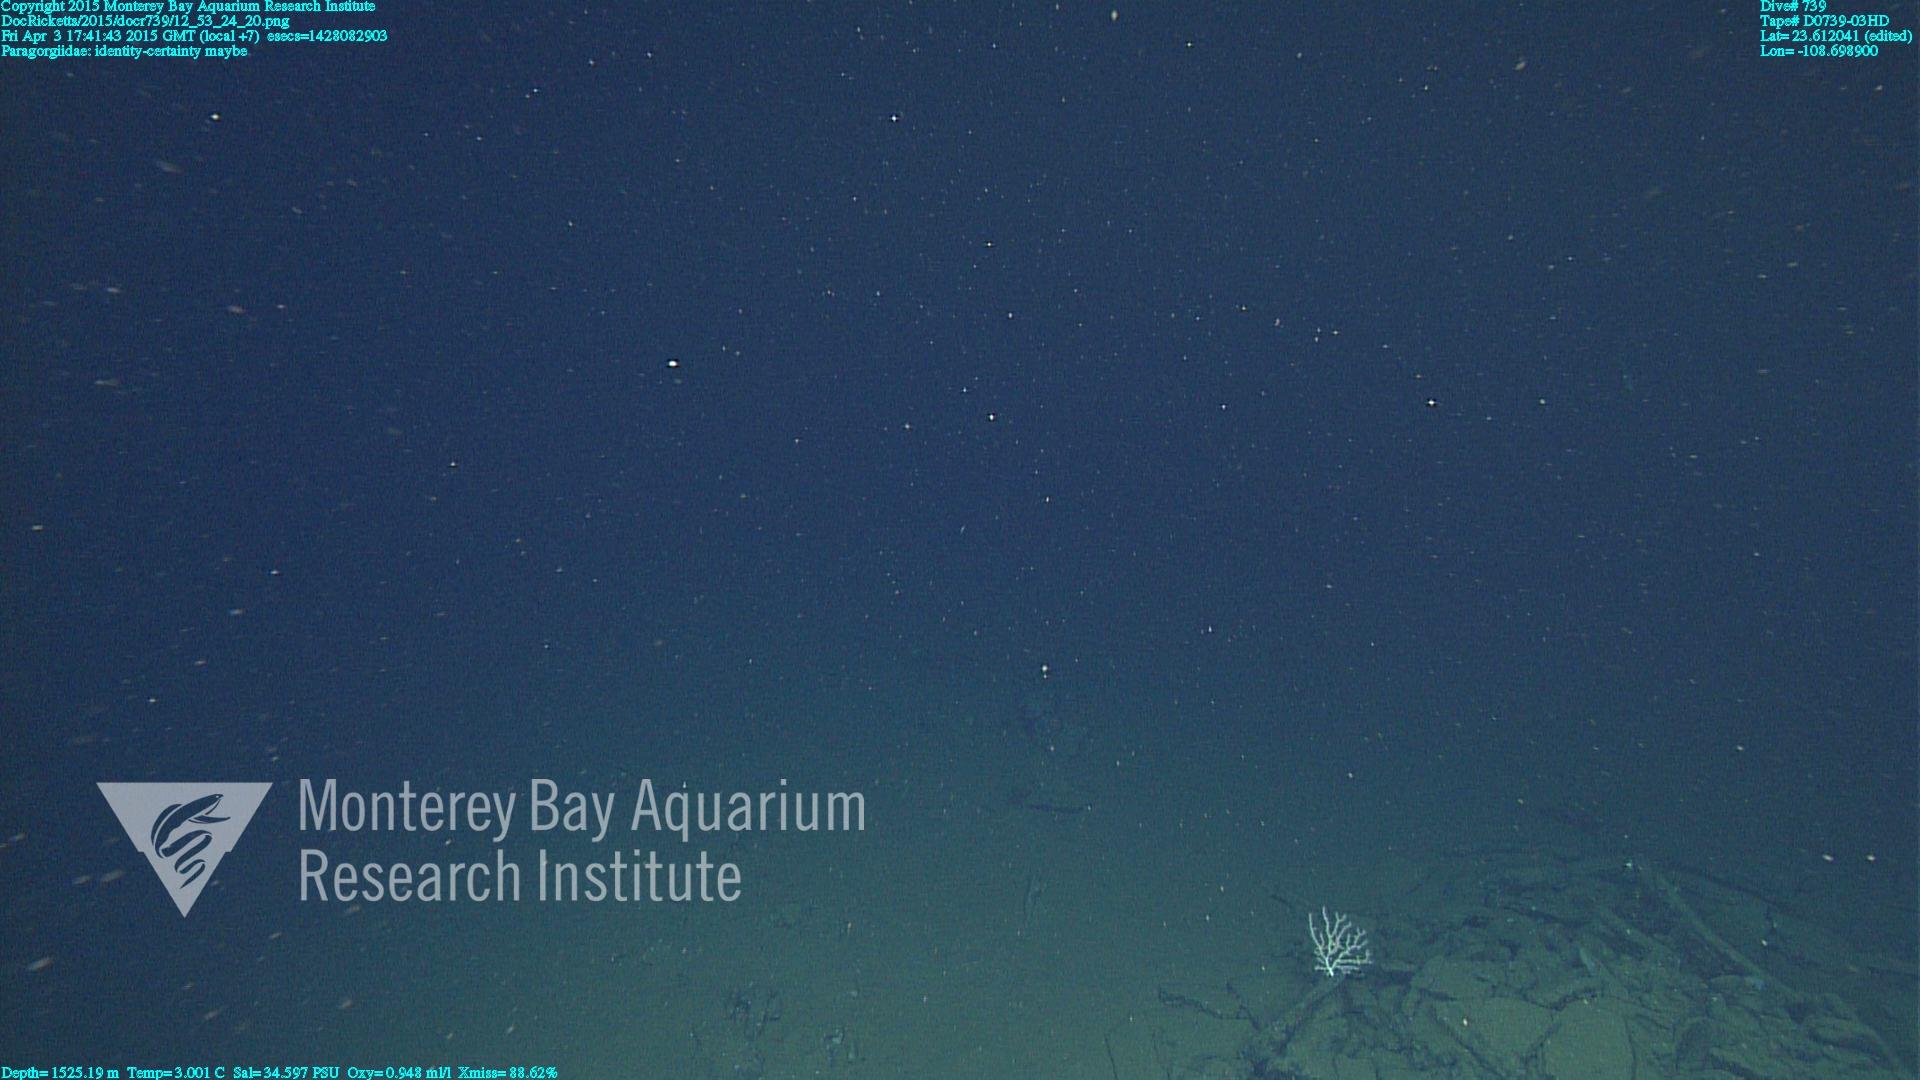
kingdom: Animalia
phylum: Cnidaria
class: Anthozoa
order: Scleralcyonacea
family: Coralliidae
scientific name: Coralliidae
